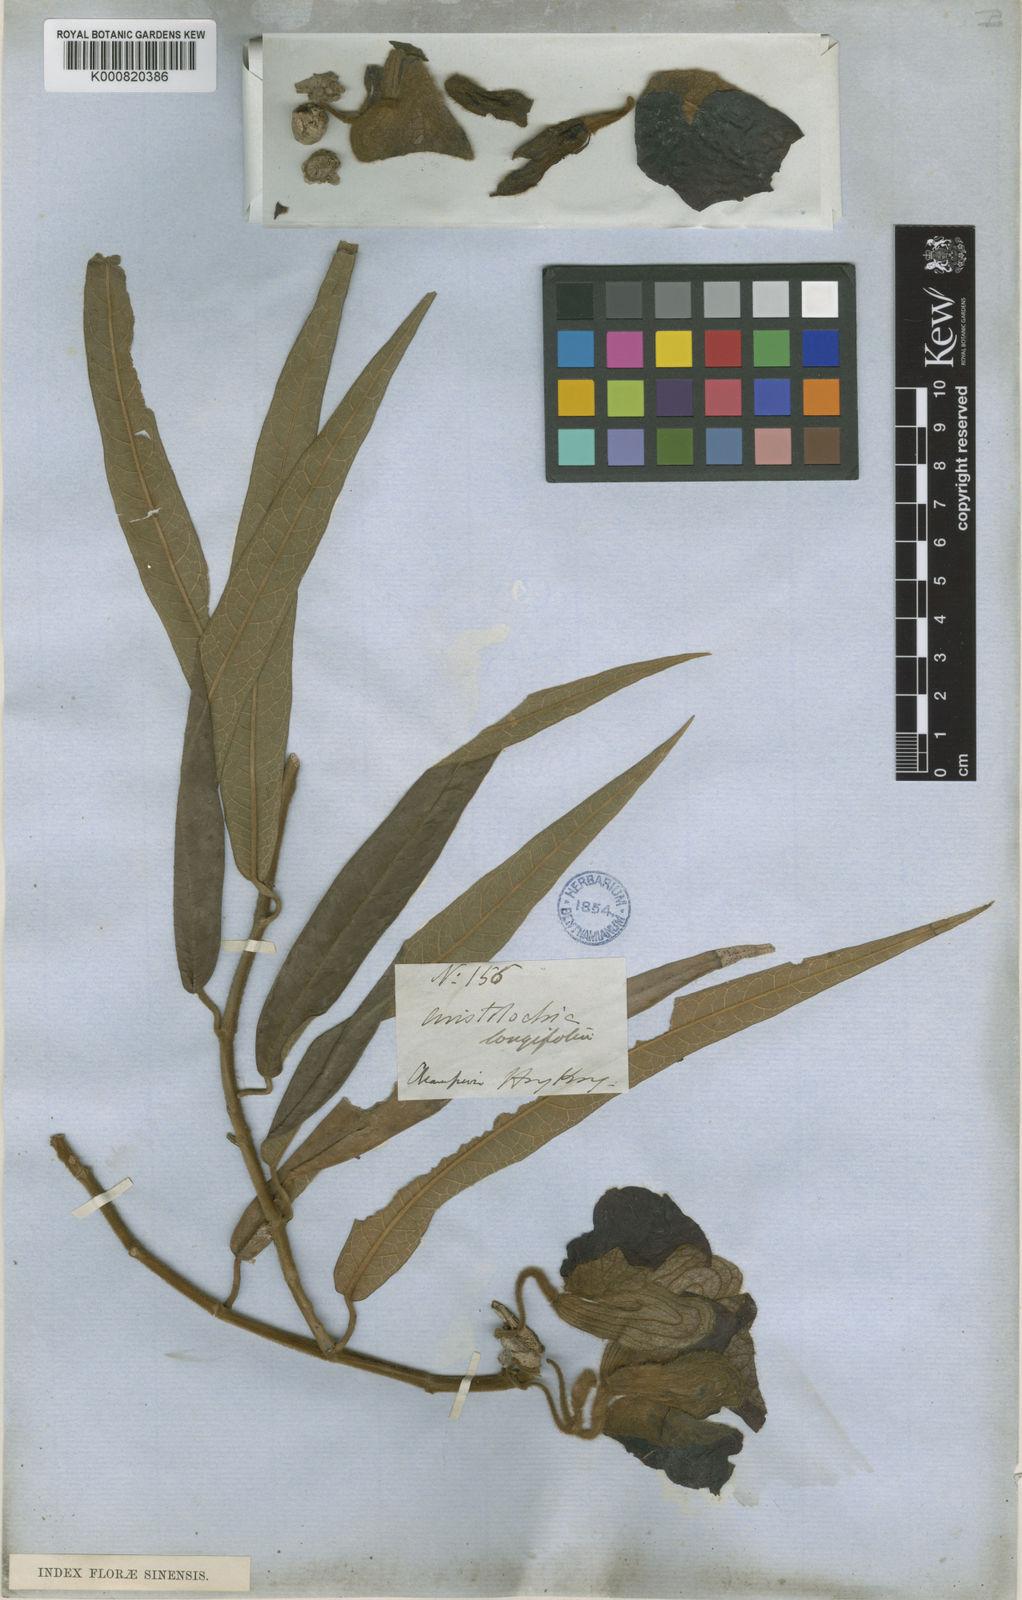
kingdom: Plantae
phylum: Tracheophyta
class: Magnoliopsida
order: Piperales
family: Aristolochiaceae
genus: Isotrema
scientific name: Isotrema
